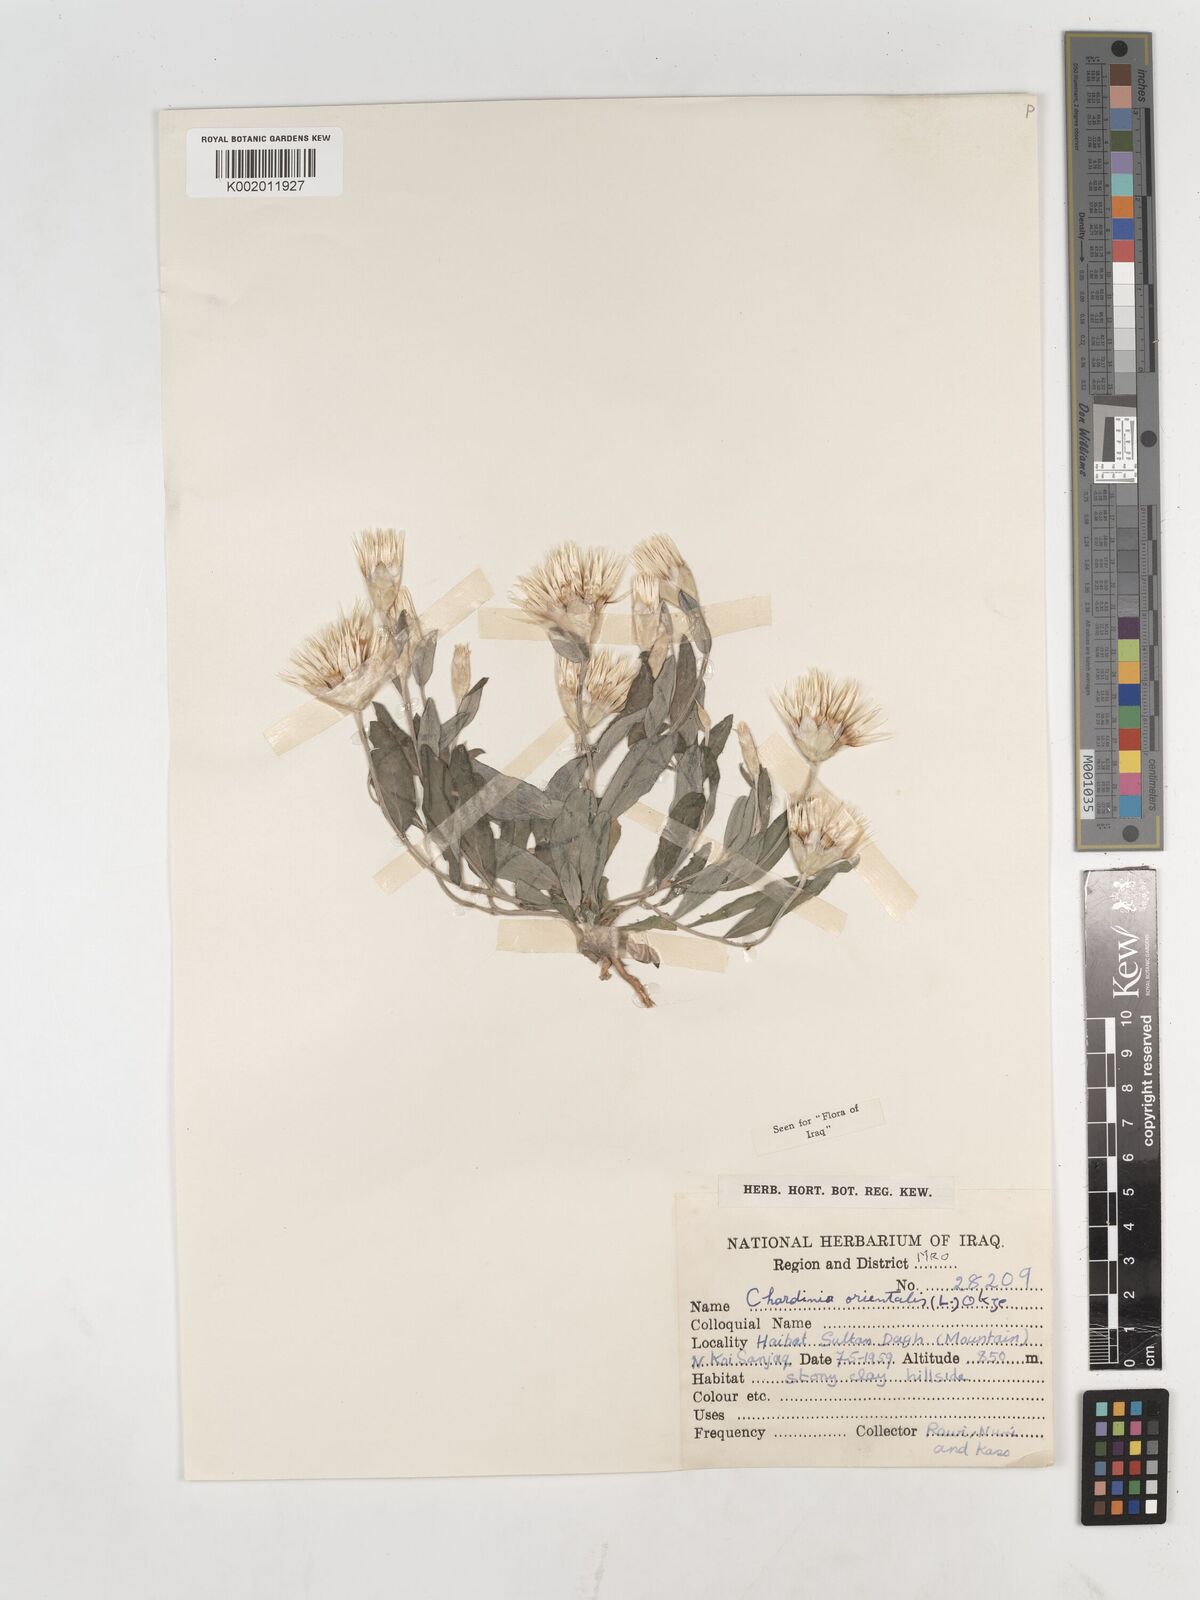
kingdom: Plantae
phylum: Tracheophyta
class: Magnoliopsida
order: Asterales
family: Asteraceae
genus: Chardinia
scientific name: Chardinia orientalis
